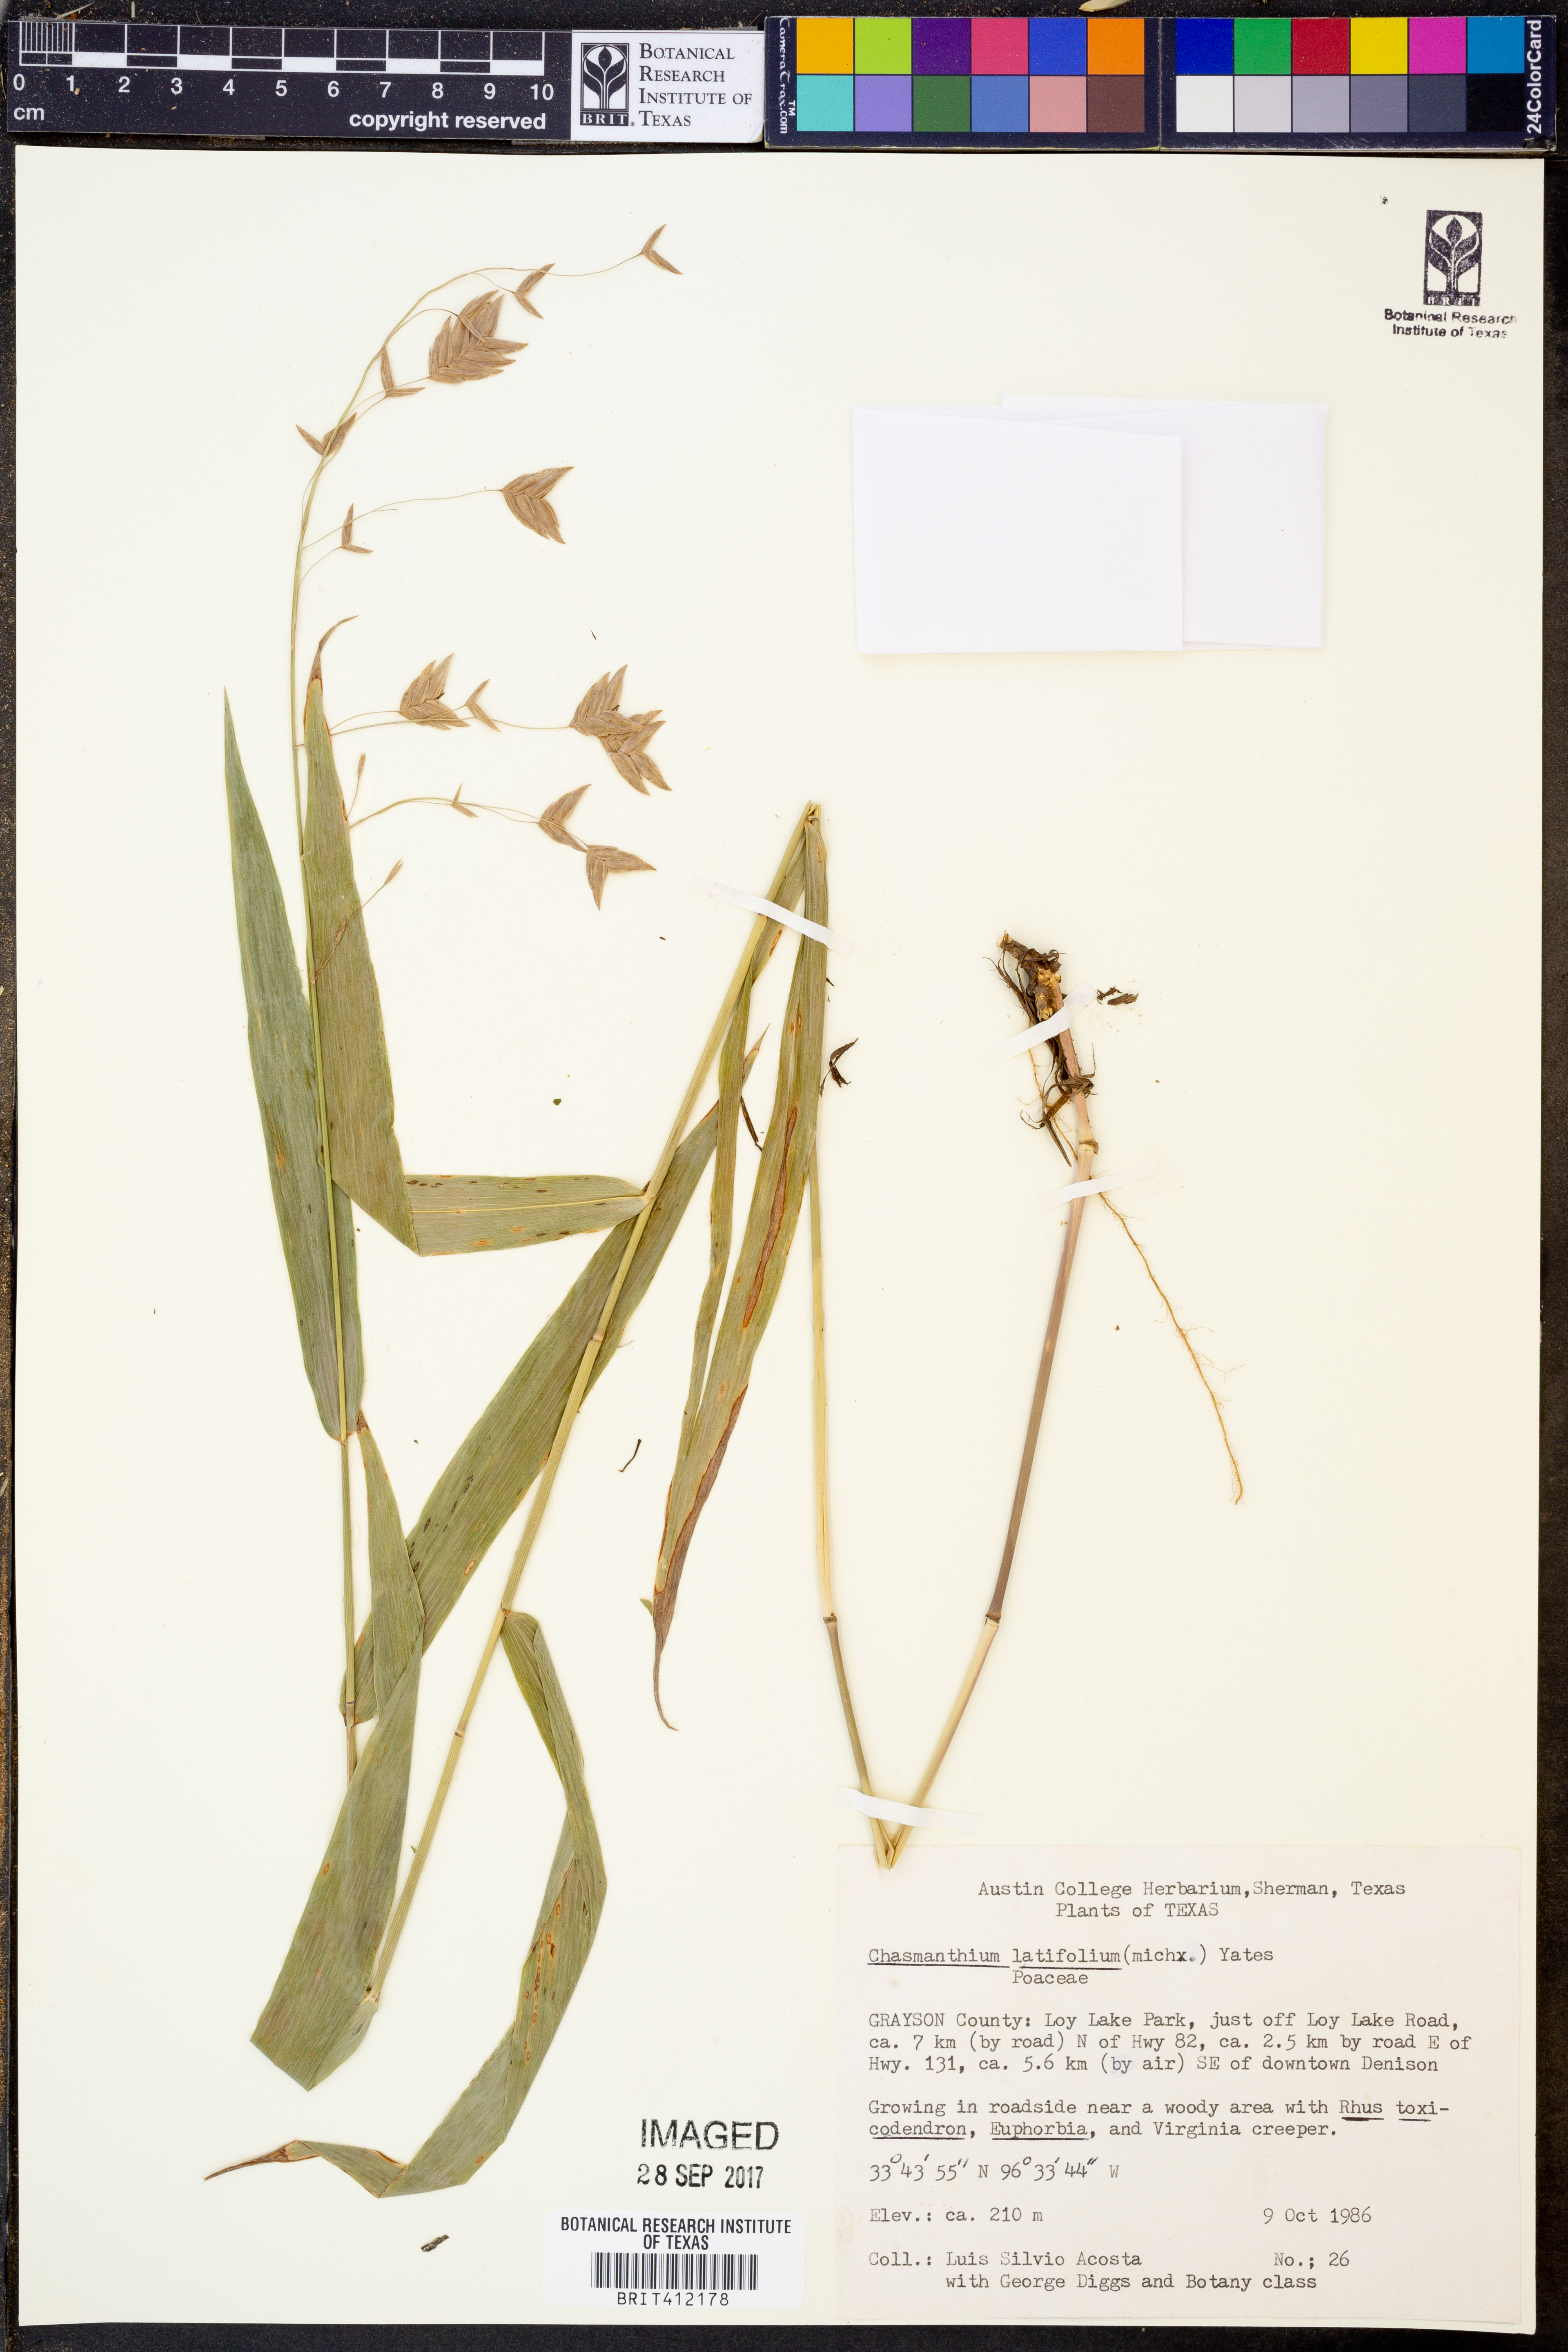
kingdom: Plantae
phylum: Tracheophyta
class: Liliopsida
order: Poales
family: Poaceae
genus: Chasmanthium
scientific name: Chasmanthium latifolium
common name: Broad-leaved chasmanthium
